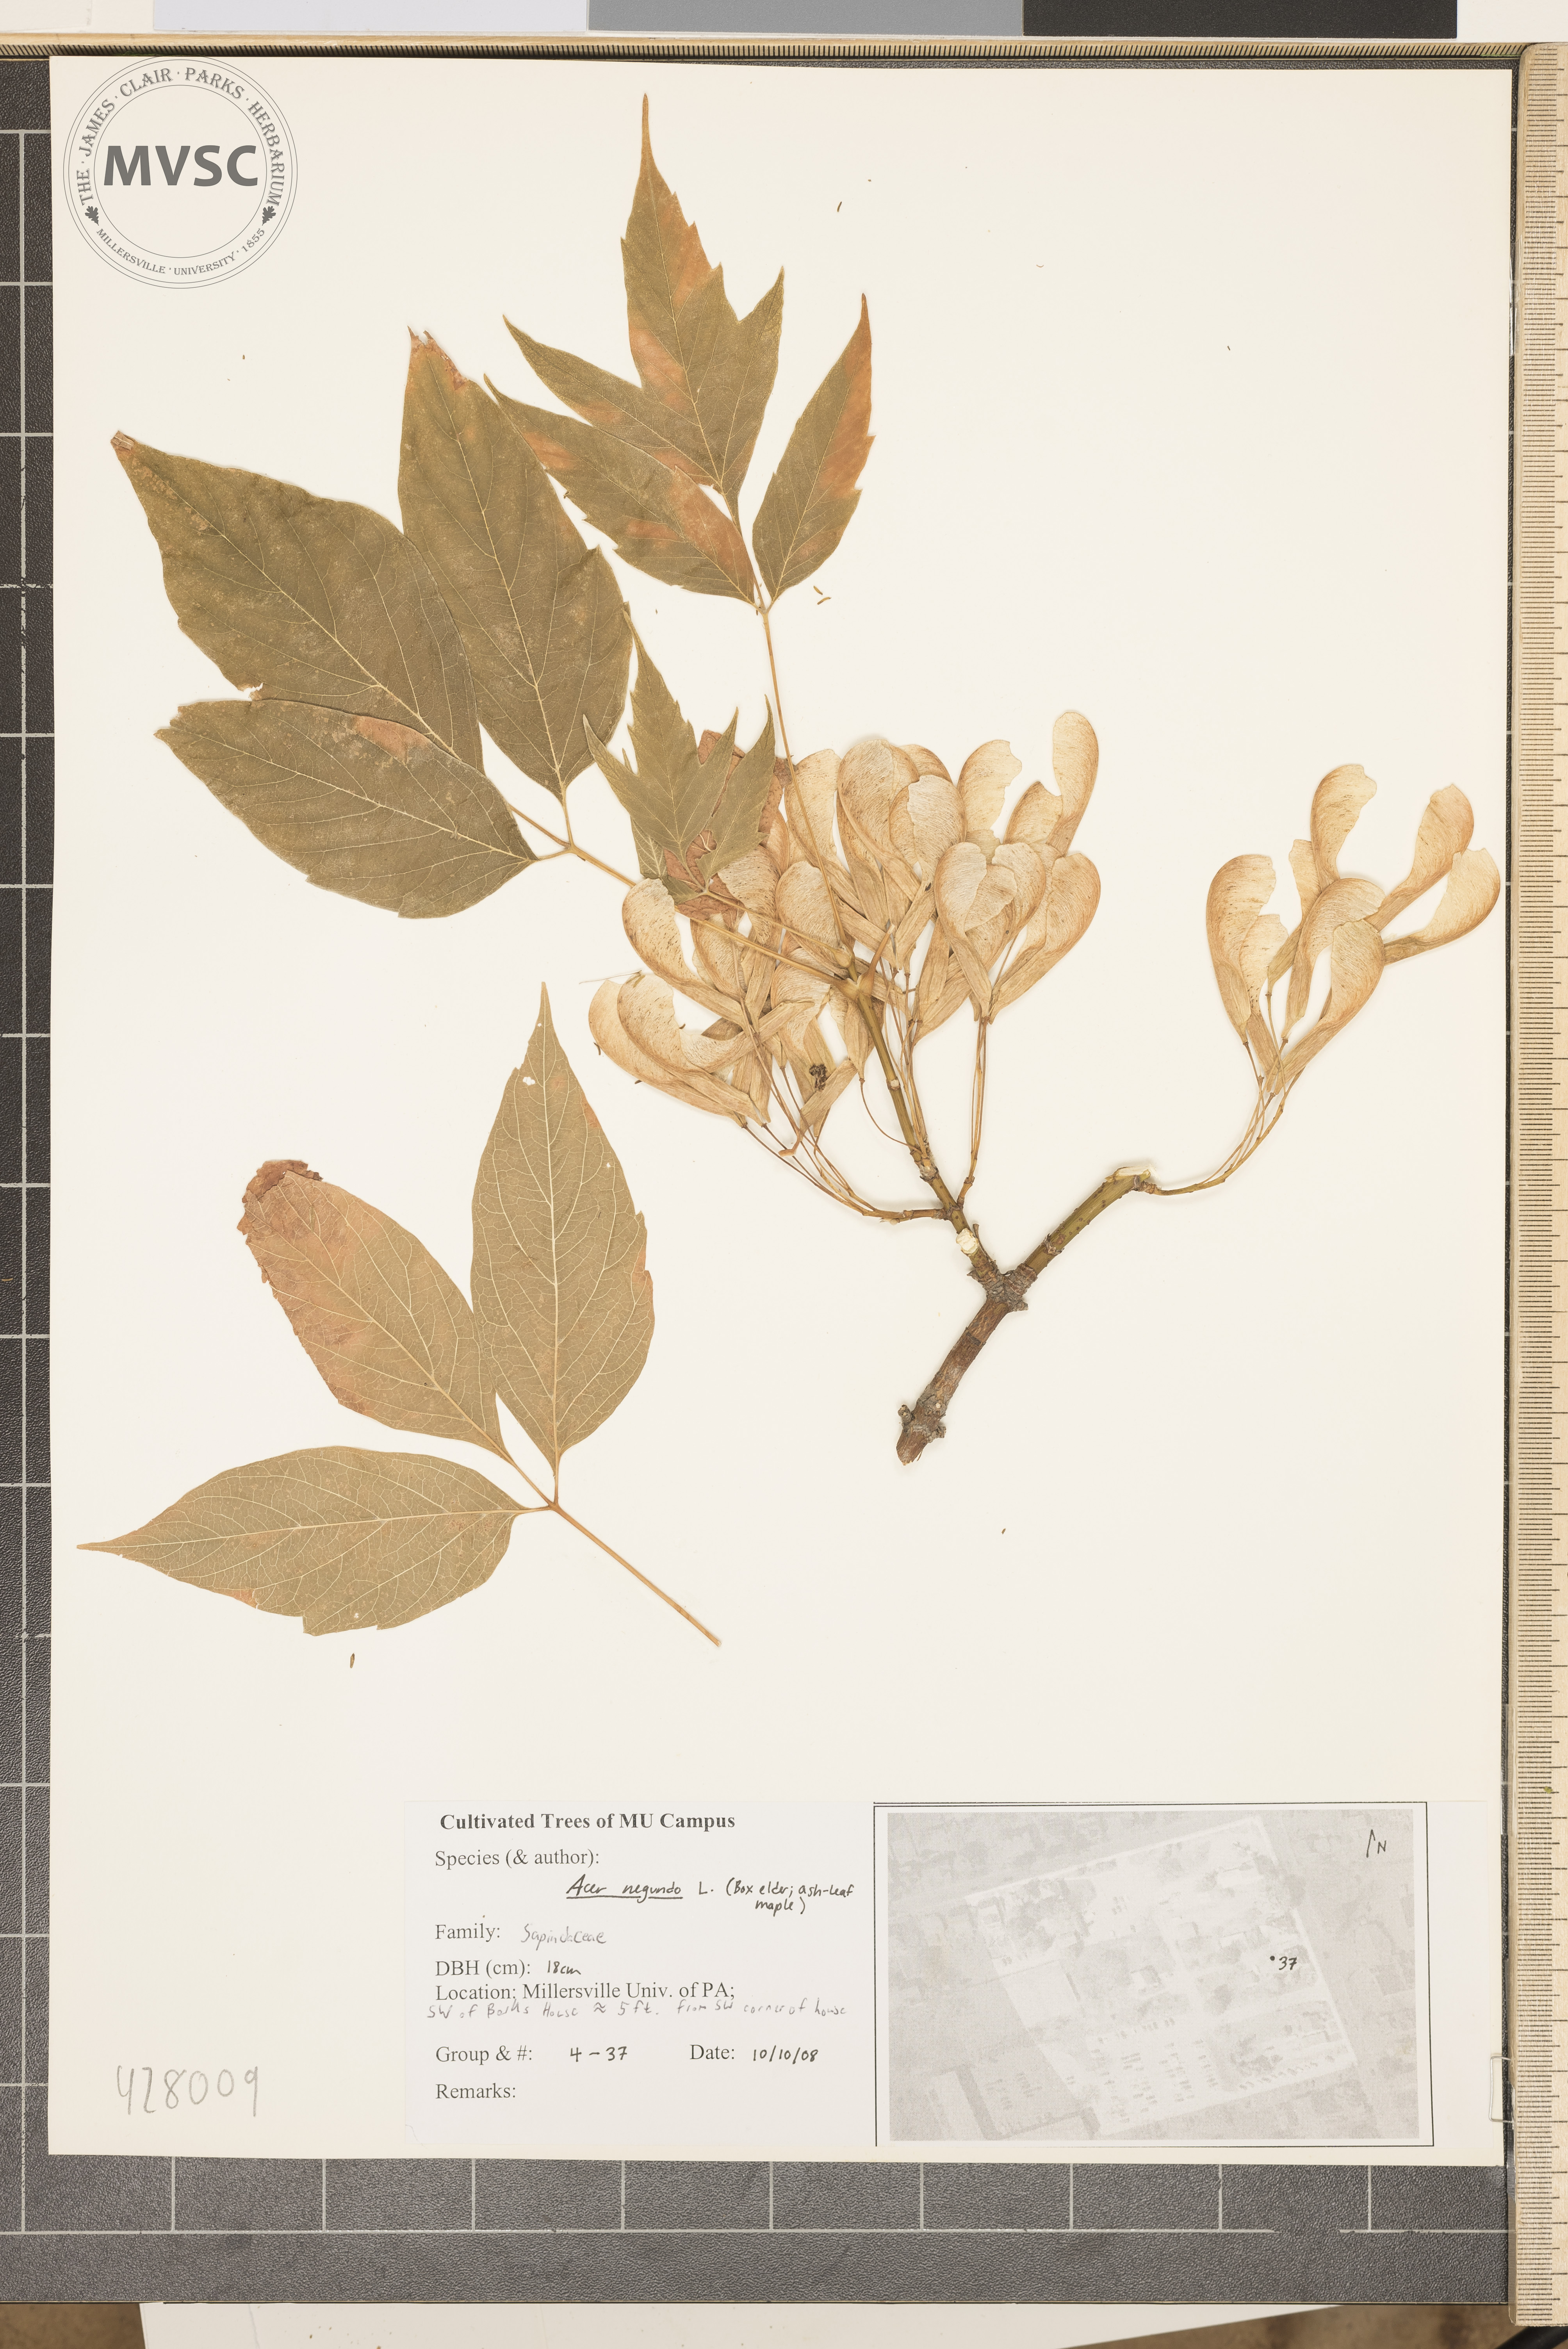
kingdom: Plantae
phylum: Tracheophyta
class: Magnoliopsida
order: Sapindales
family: Sapindaceae
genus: Acer
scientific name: Acer negundo
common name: Box-elder
